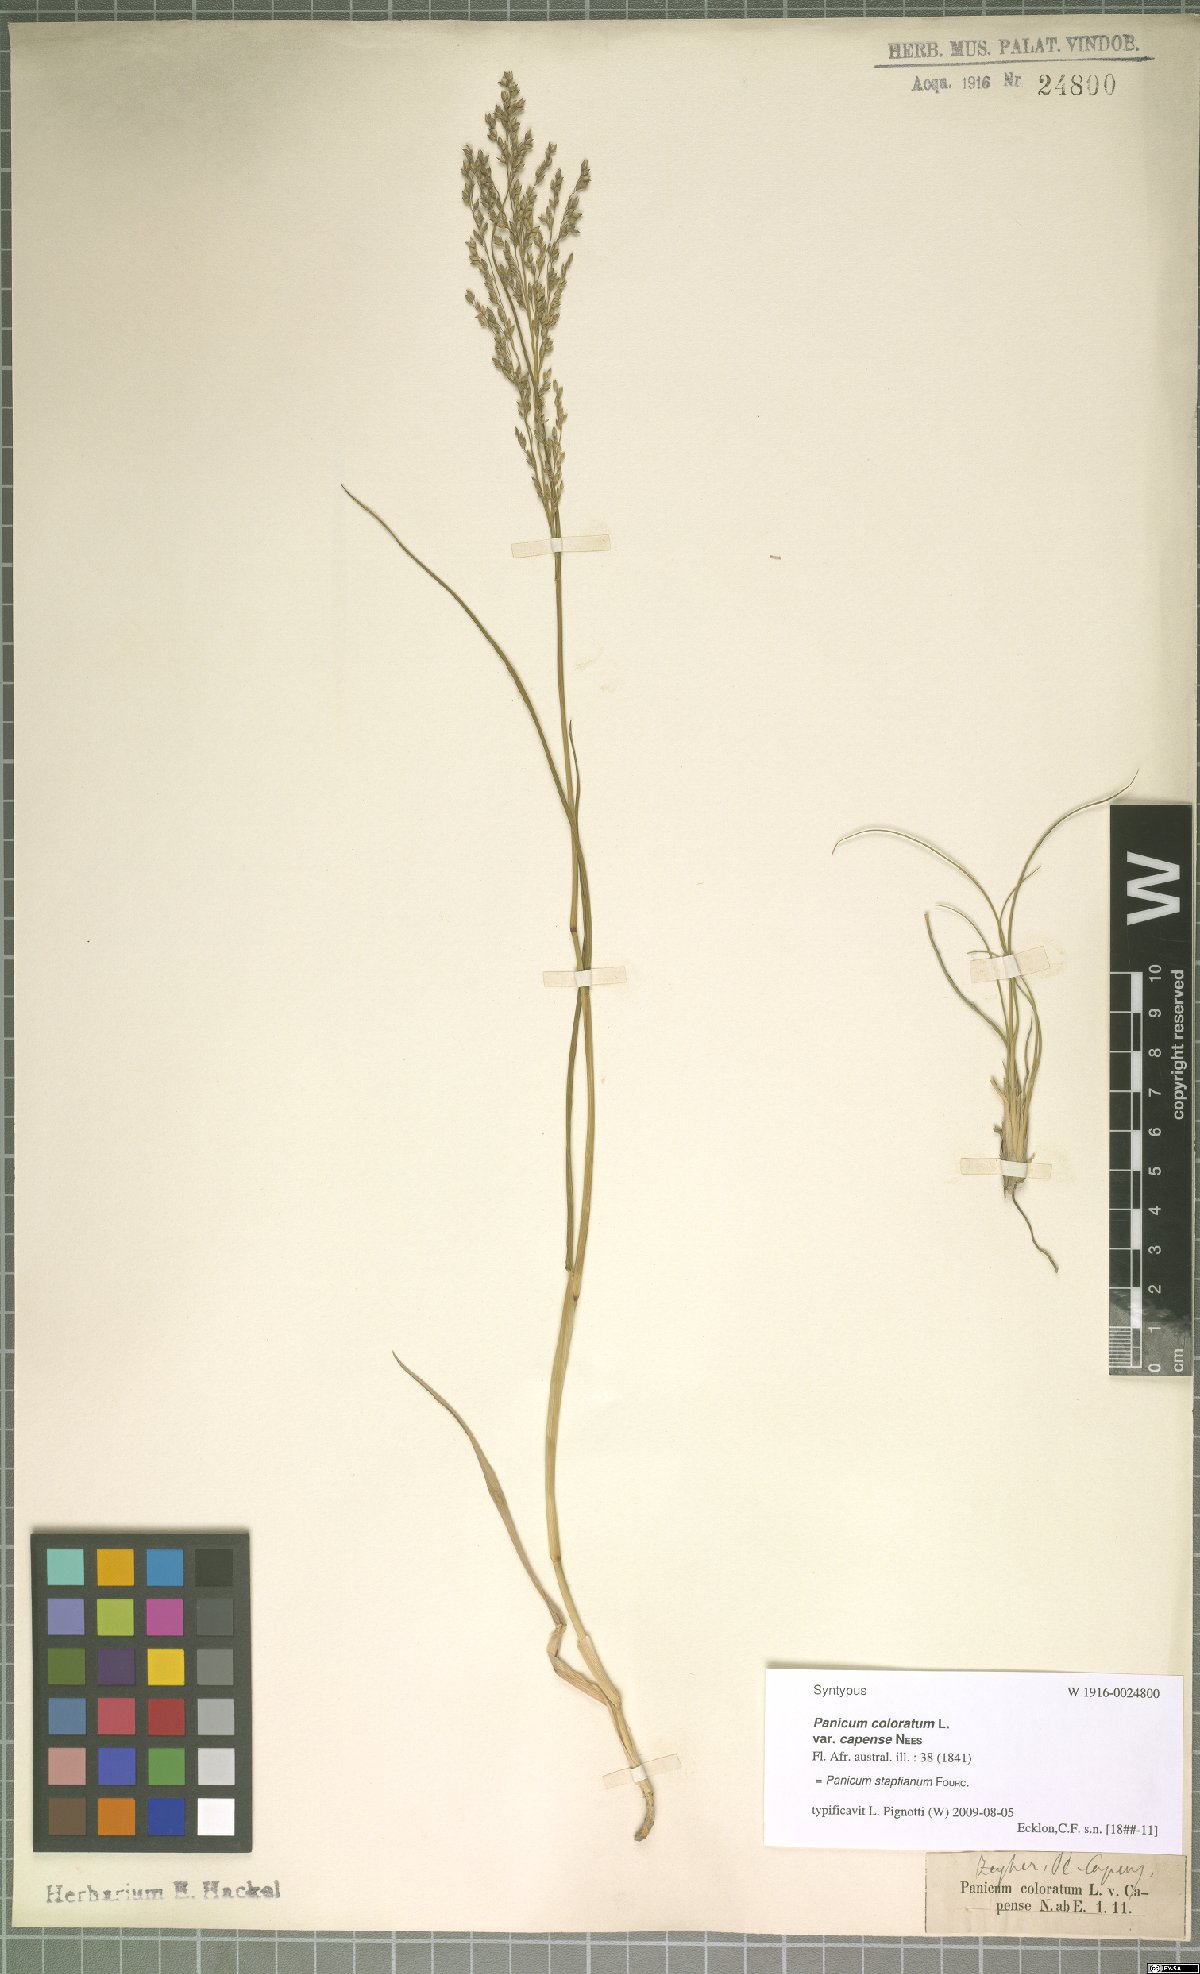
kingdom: Plantae
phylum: Tracheophyta
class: Liliopsida
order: Poales
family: Poaceae
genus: Panicum
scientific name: Panicum stapfianum
